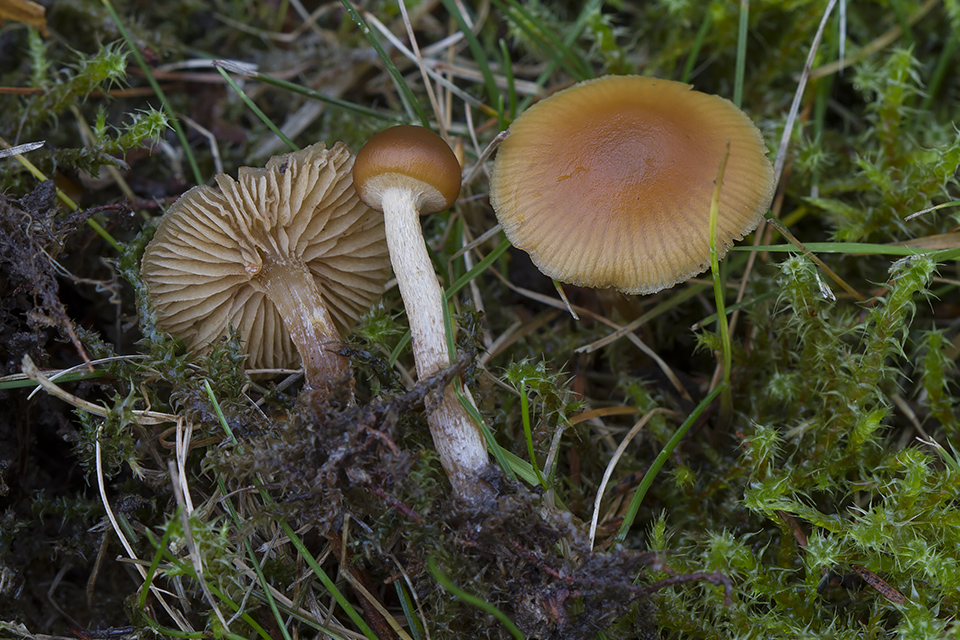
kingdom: Fungi
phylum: Basidiomycota
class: Agaricomycetes
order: Agaricales
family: Hymenogastraceae
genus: Galerina
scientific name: Galerina marginata
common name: randbæltet hjelmhat
